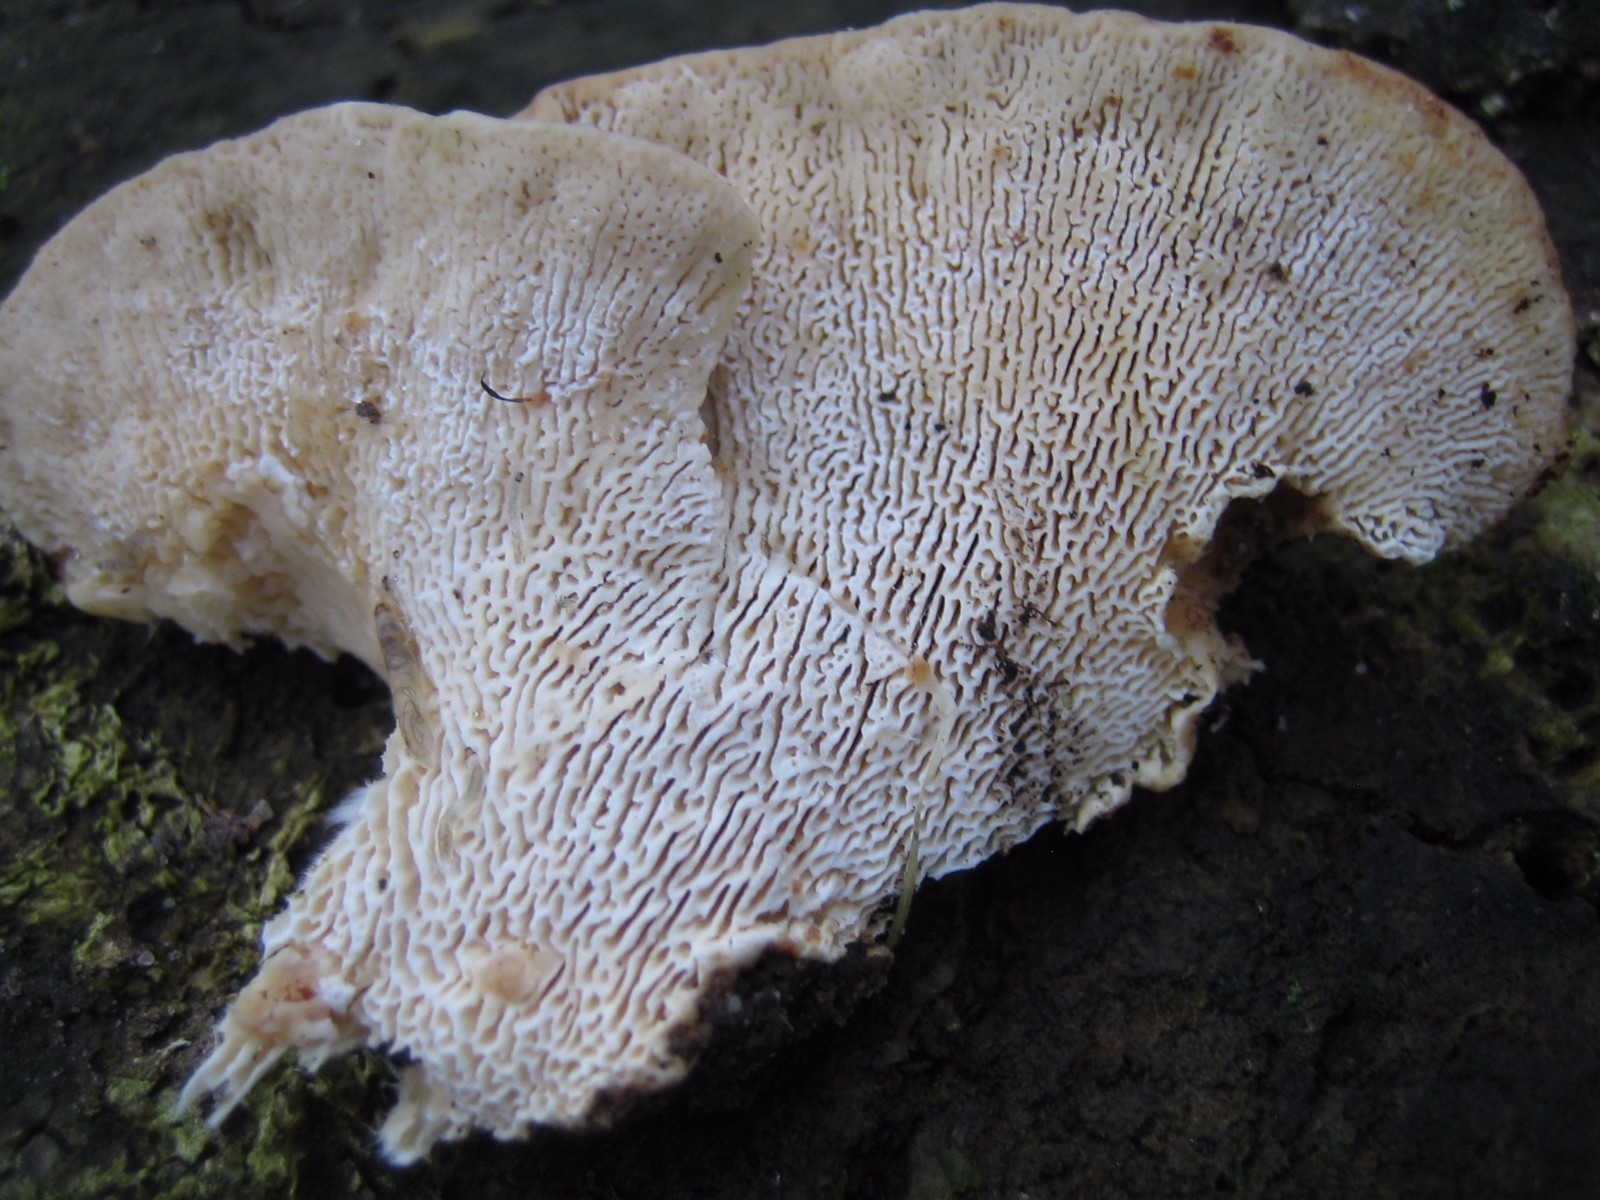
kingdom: Fungi
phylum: Basidiomycota
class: Agaricomycetes
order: Polyporales
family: Polyporaceae
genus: Trametes
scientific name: Trametes gibbosa
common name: puklet læderporesvamp
